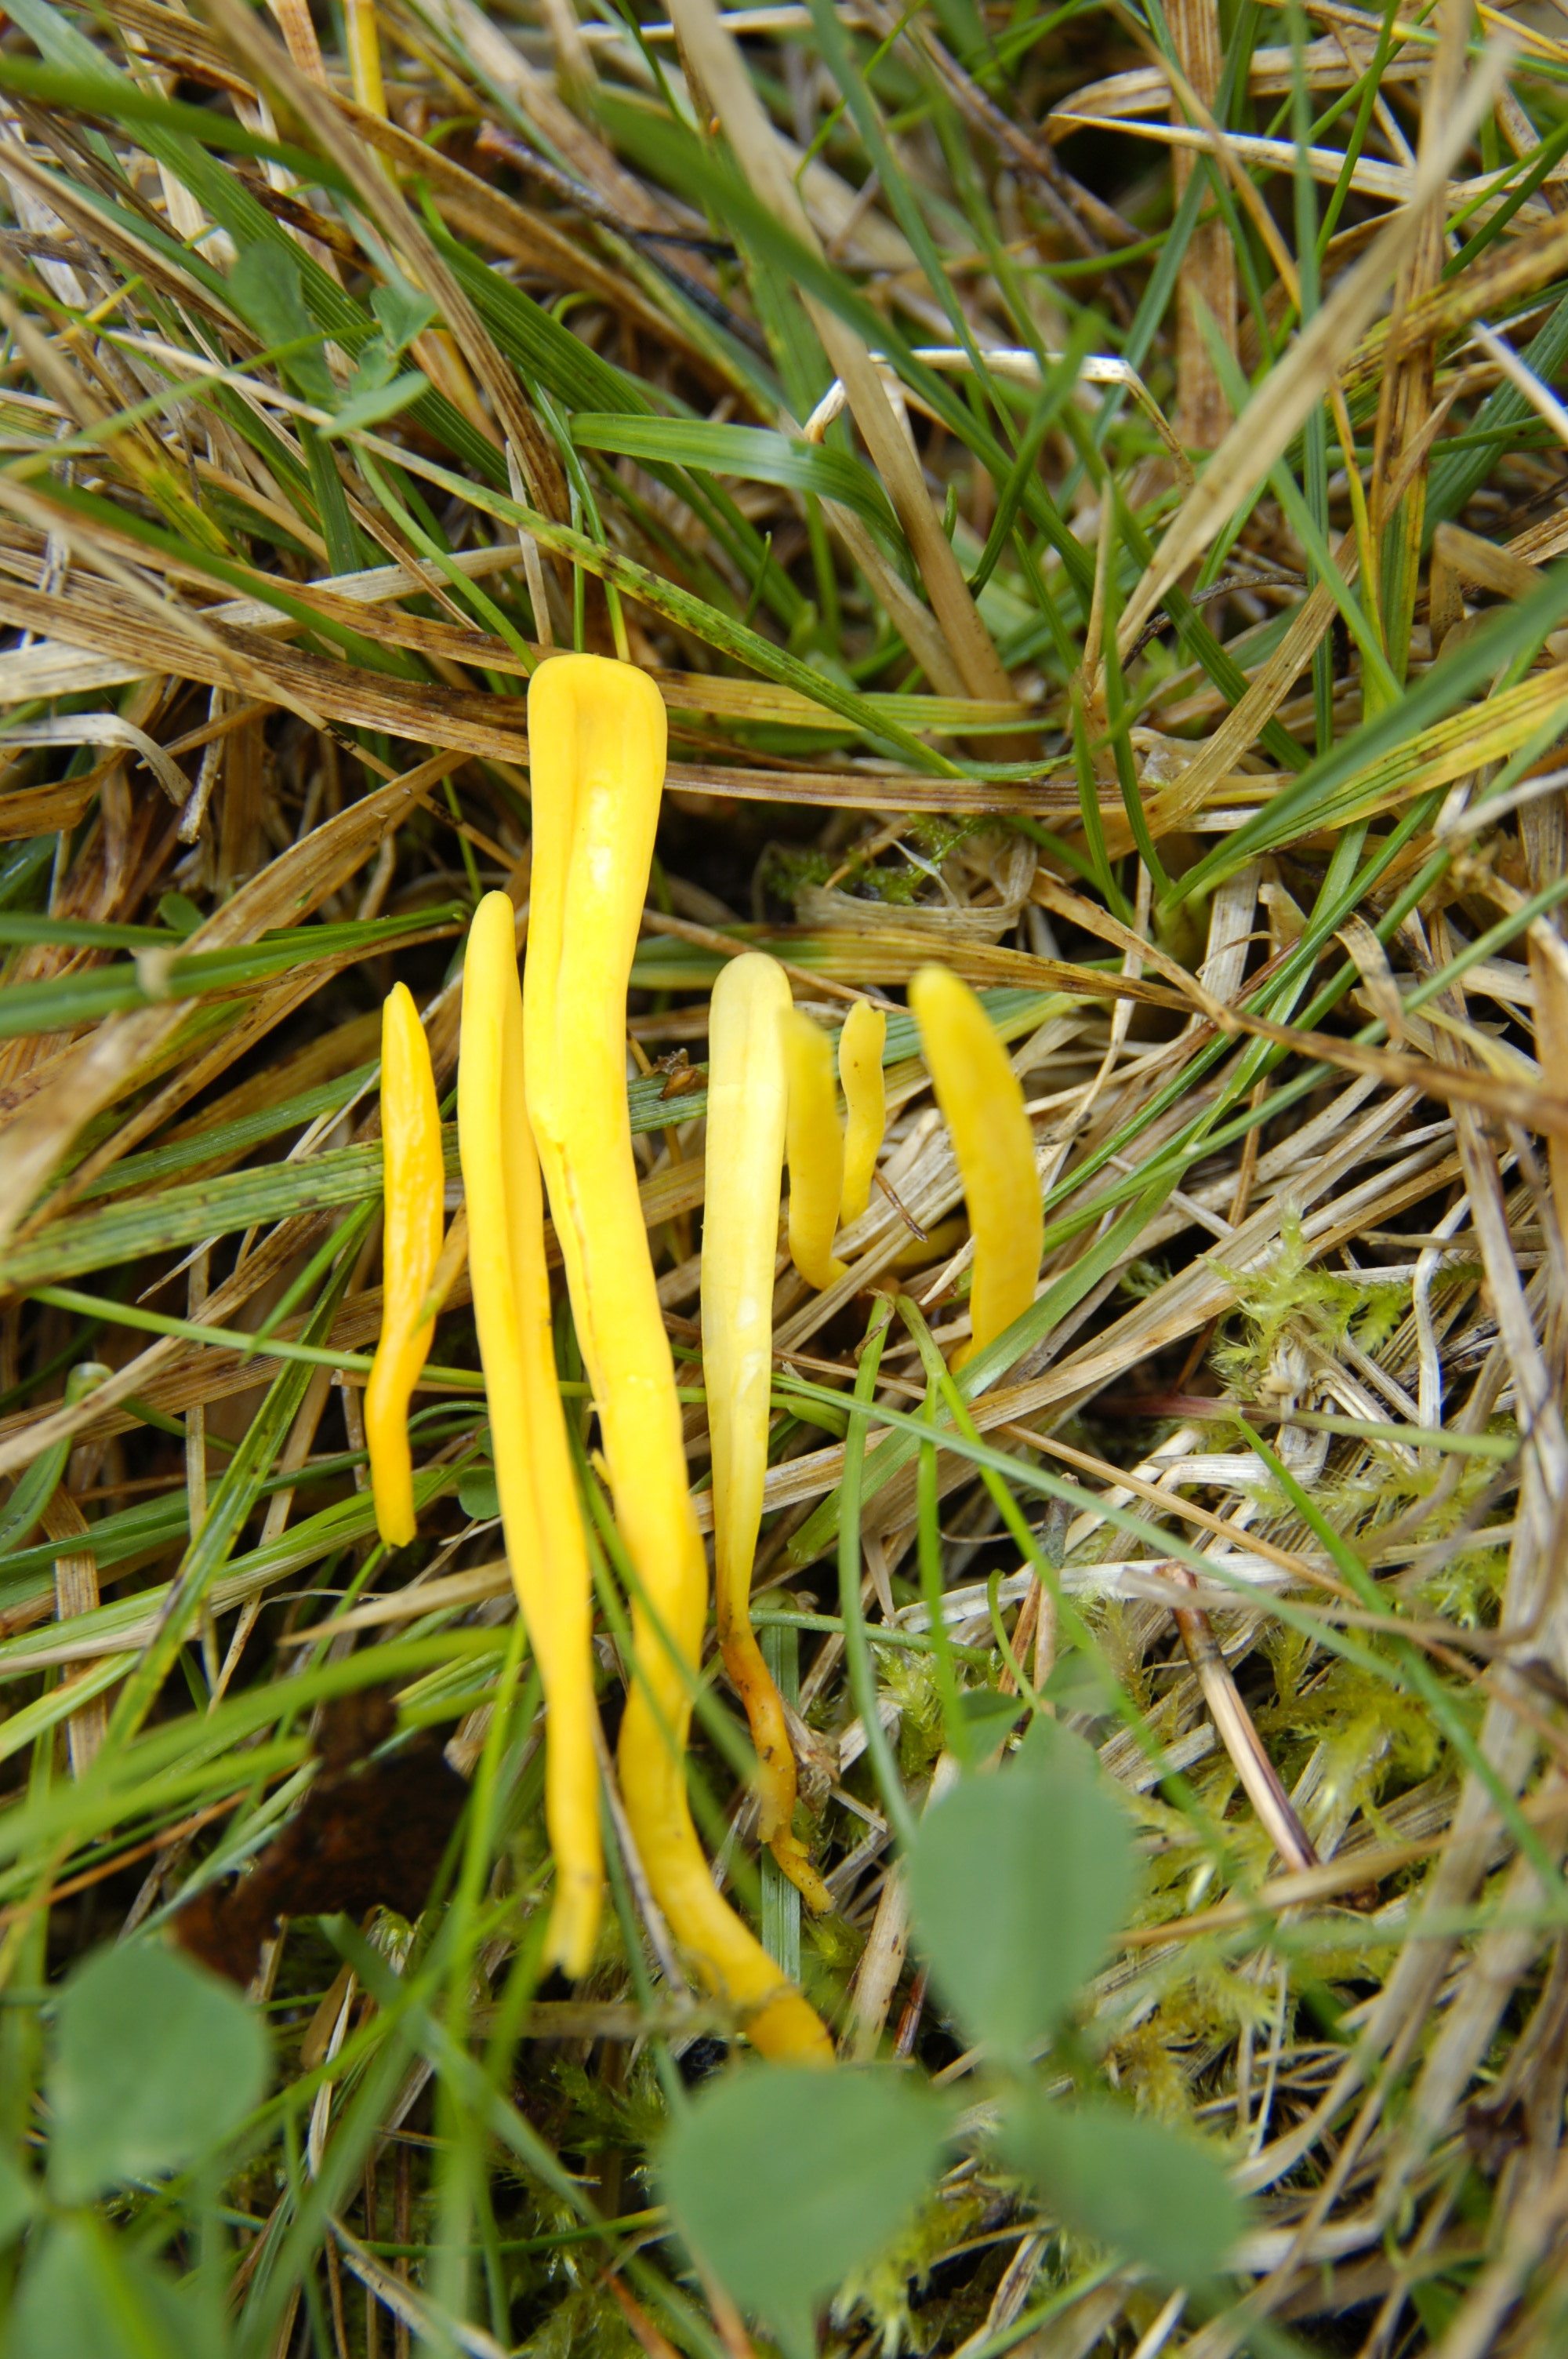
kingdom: Fungi
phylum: Basidiomycota
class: Agaricomycetes
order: Agaricales
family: Clavariaceae
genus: Clavulinopsis
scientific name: Clavulinopsis helvola
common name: Yellow club
